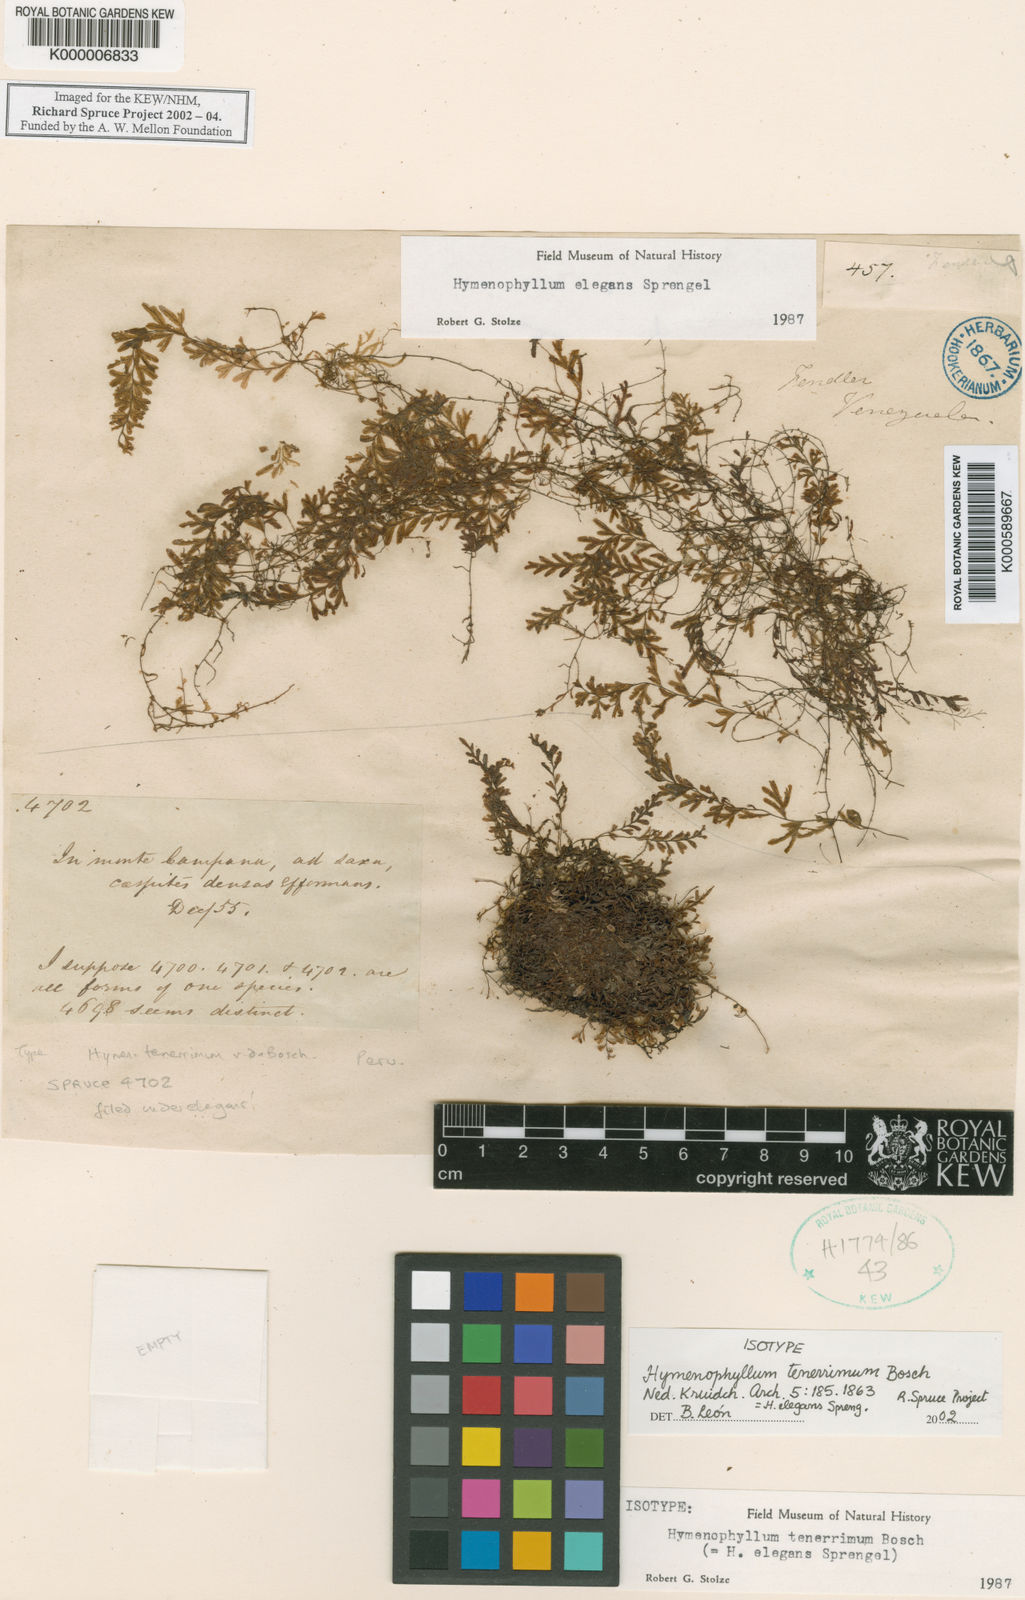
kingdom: Plantae
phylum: Tracheophyta
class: Polypodiopsida
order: Hymenophyllales
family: Hymenophyllaceae
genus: Hymenophyllum
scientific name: Hymenophyllum elegans
